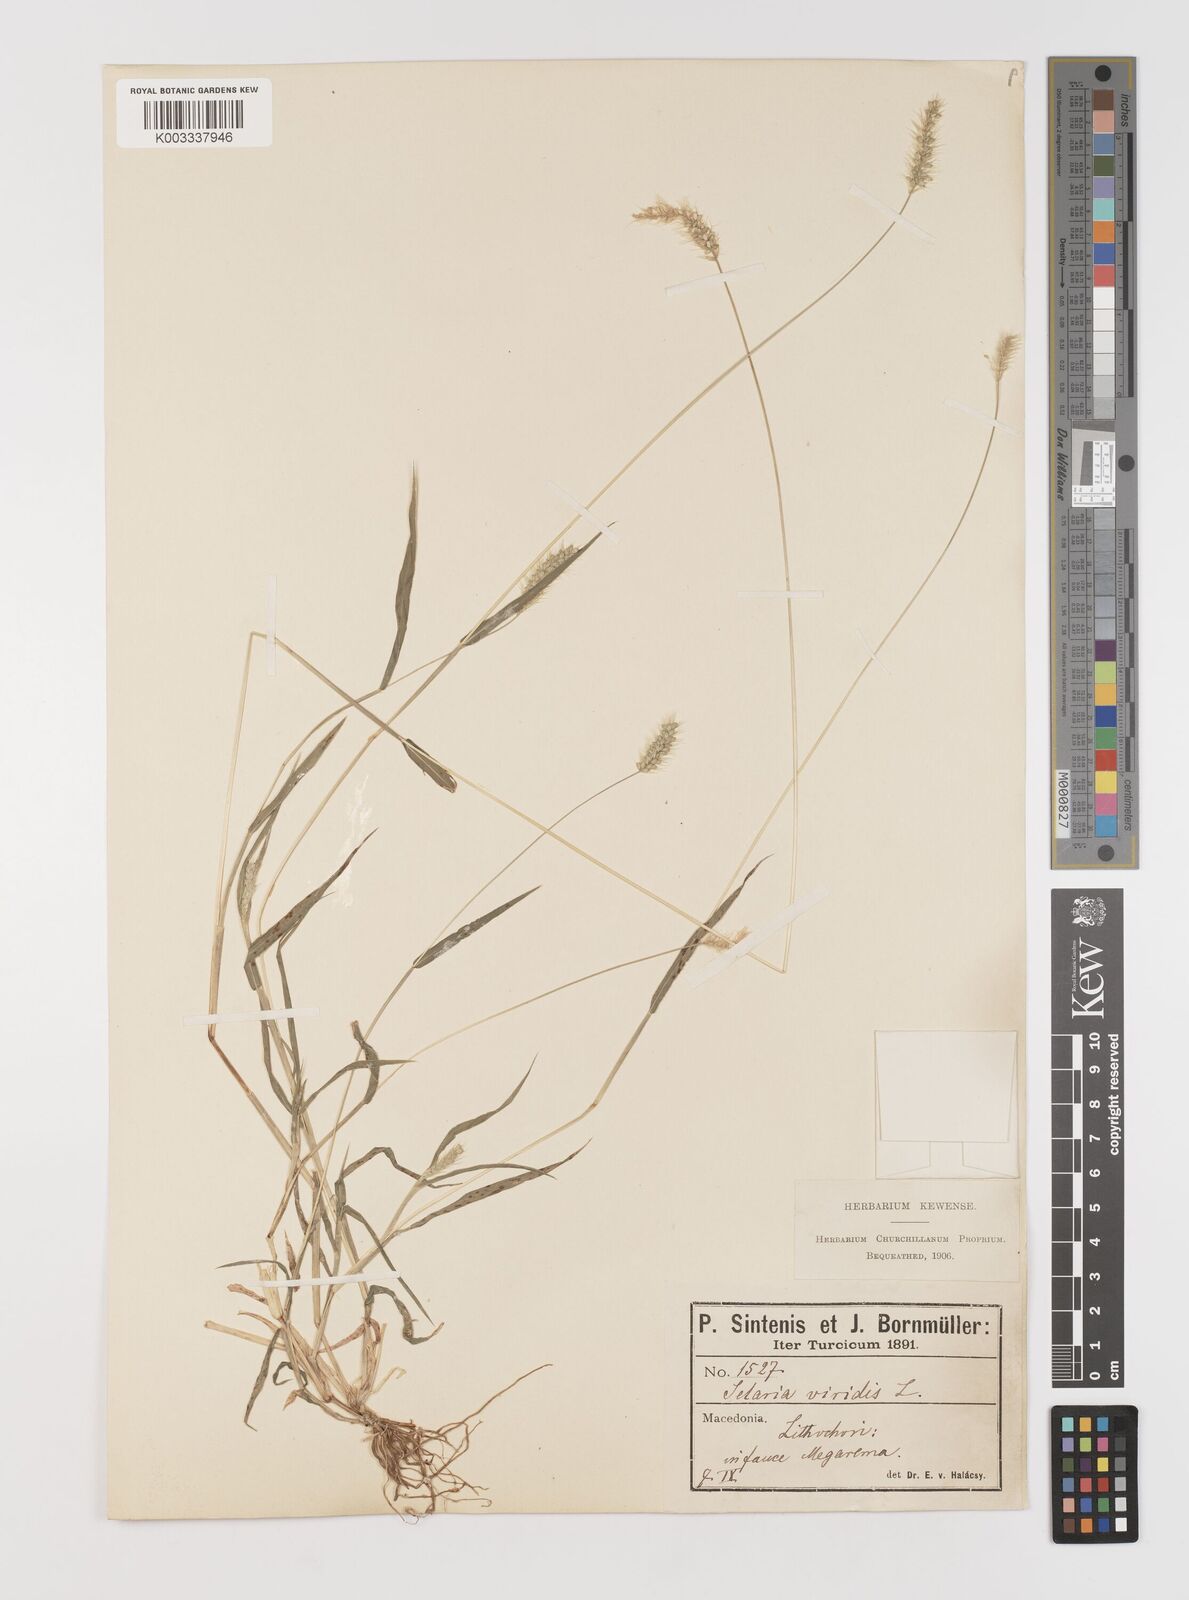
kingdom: Plantae
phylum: Tracheophyta
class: Liliopsida
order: Poales
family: Poaceae
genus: Setaria
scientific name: Setaria viridis
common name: Green bristlegrass
